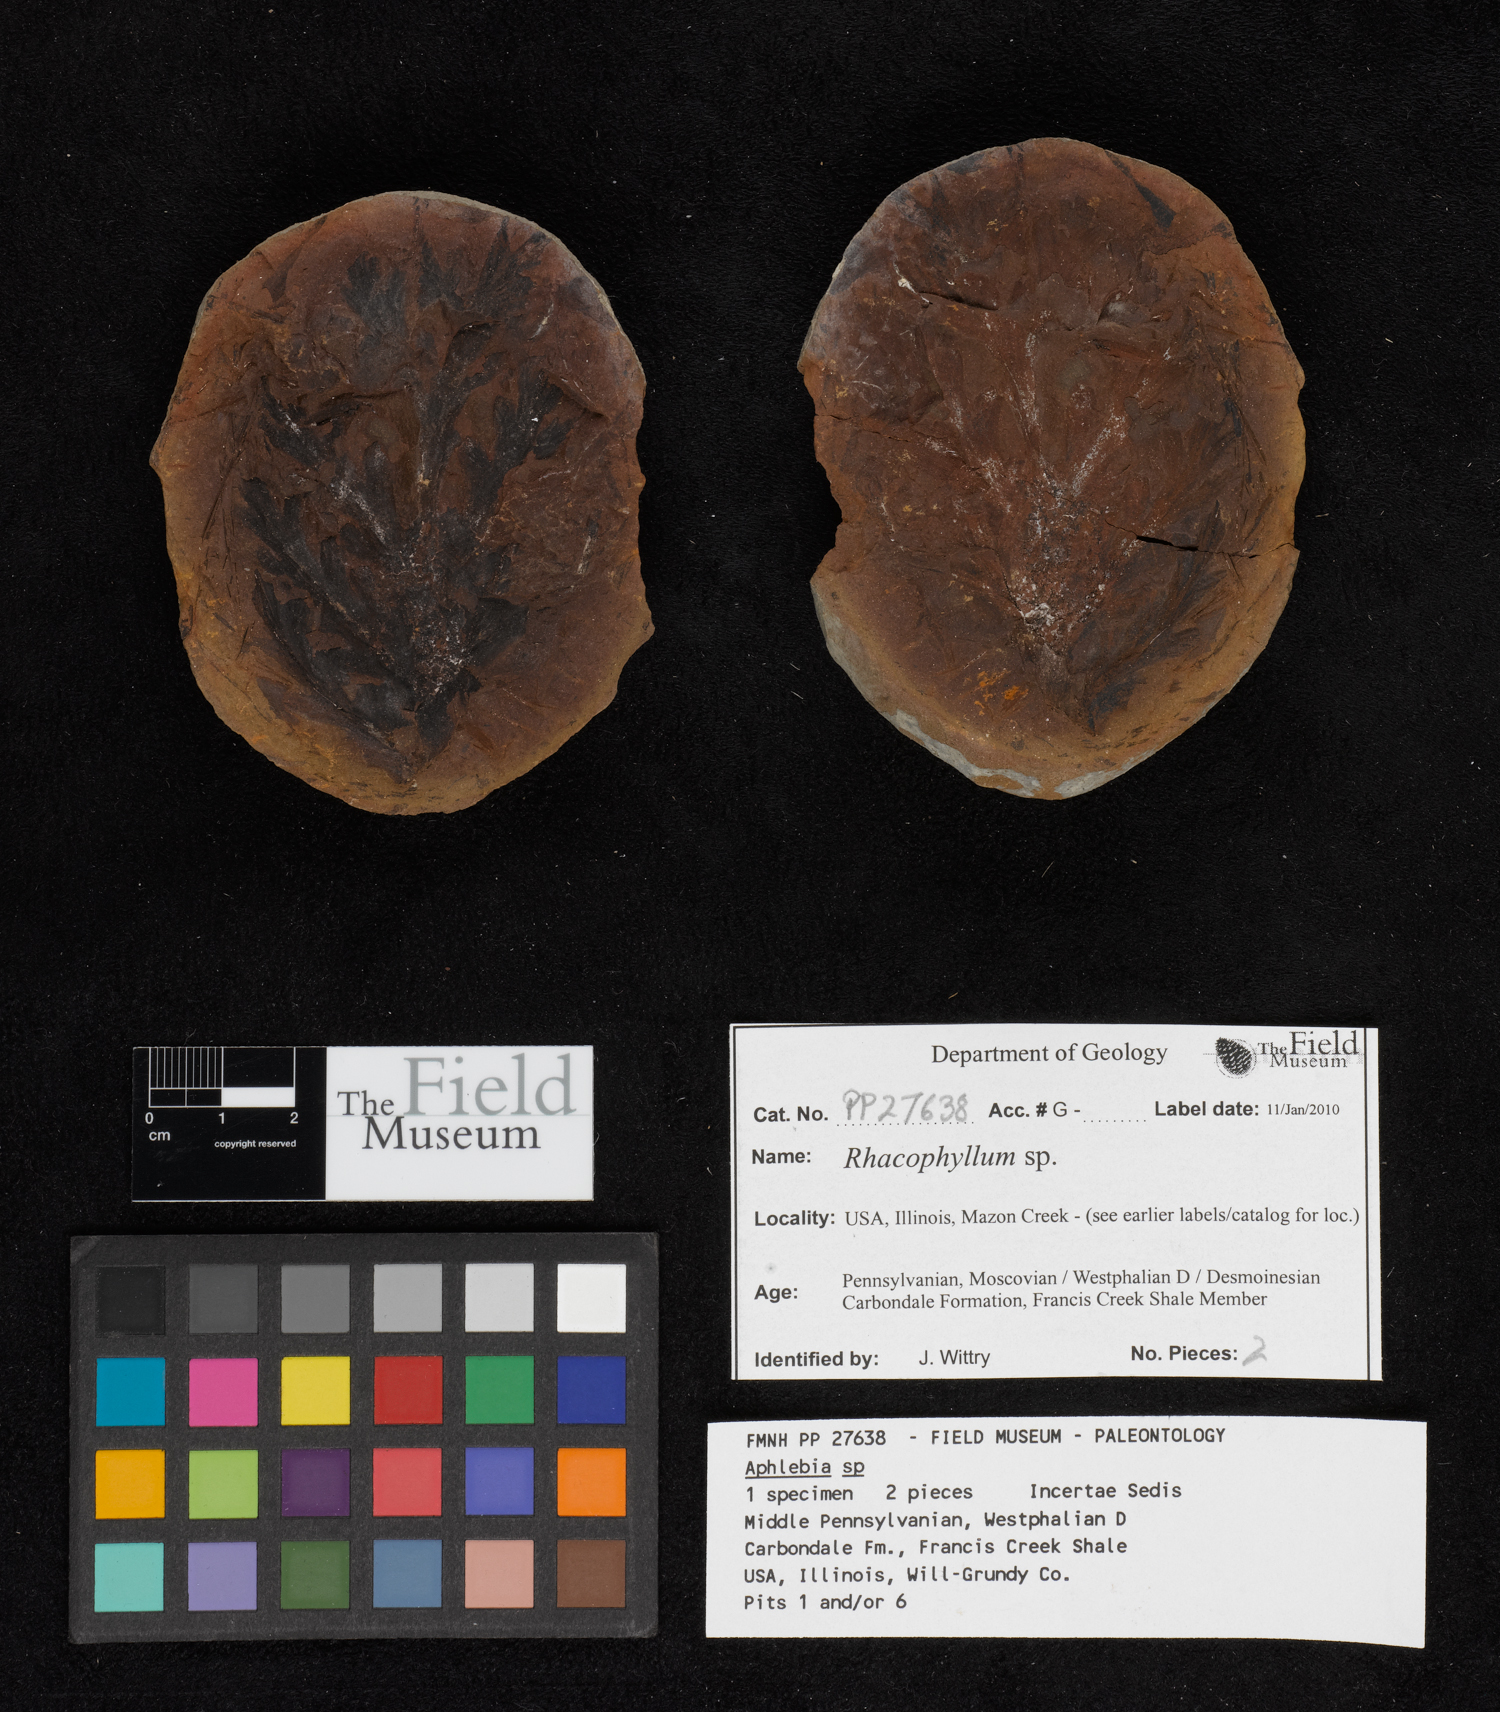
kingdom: Plantae
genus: Rhacophyllum
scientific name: Rhacophyllum
